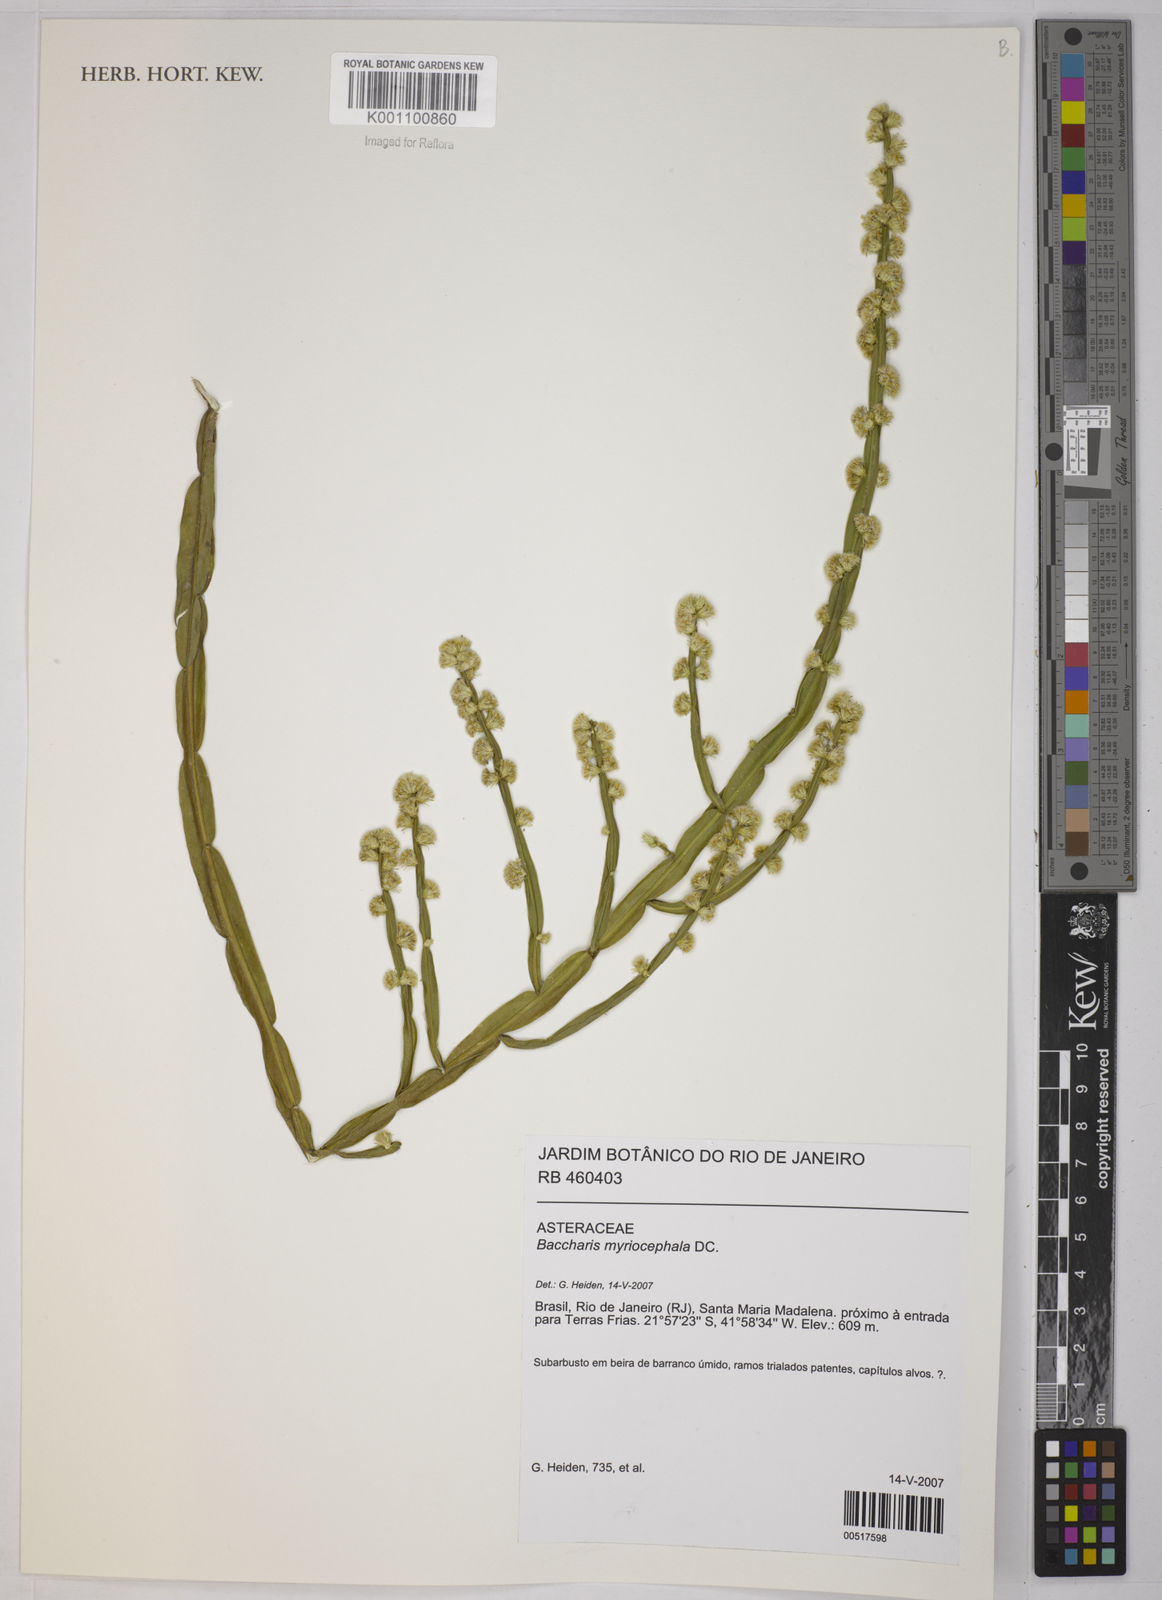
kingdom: Plantae
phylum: Tracheophyta
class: Magnoliopsida
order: Asterales
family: Asteraceae
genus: Baccharis
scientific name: Baccharis myriocephala
